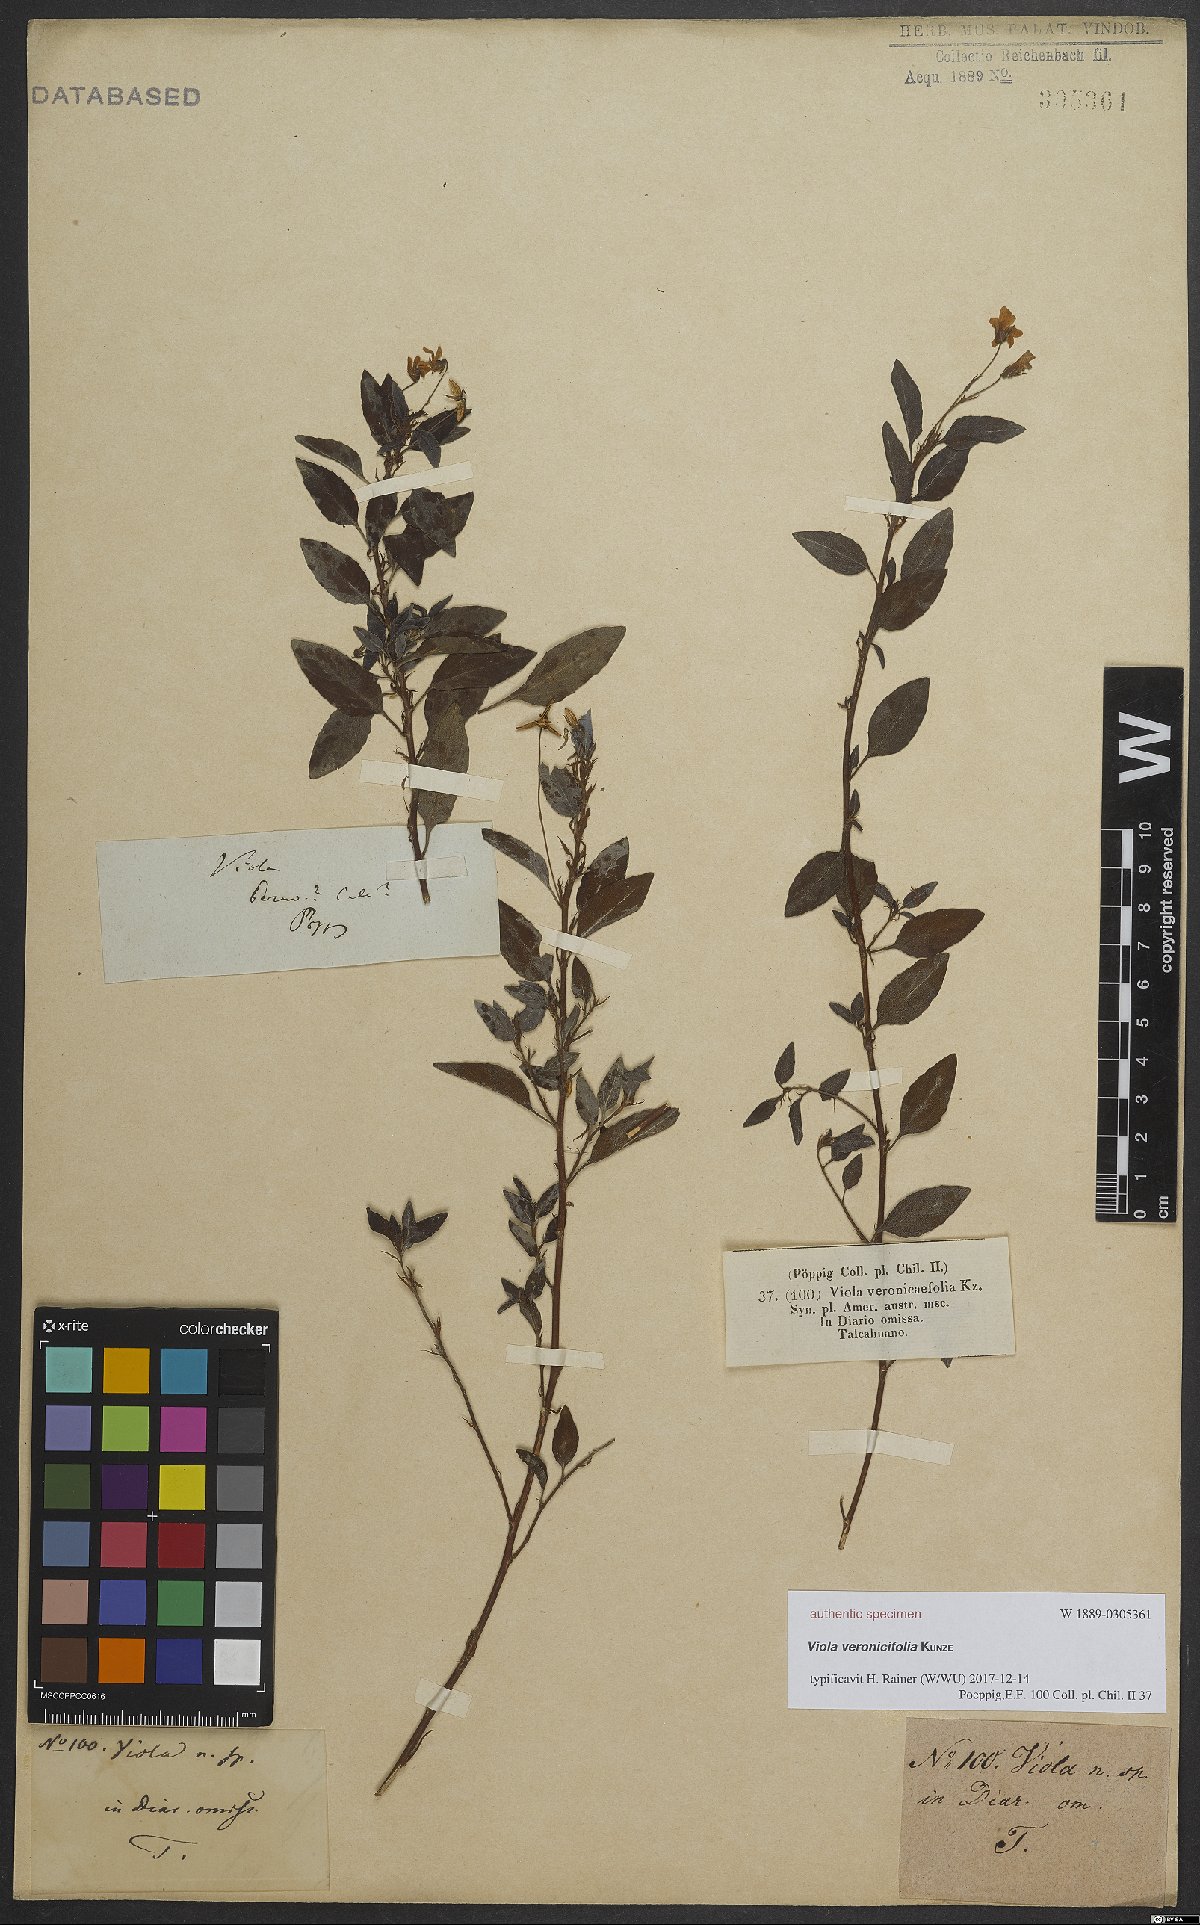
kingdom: Plantae
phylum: Tracheophyta
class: Magnoliopsida
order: Malpighiales
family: Violaceae
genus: Viola
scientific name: Viola capillaris
